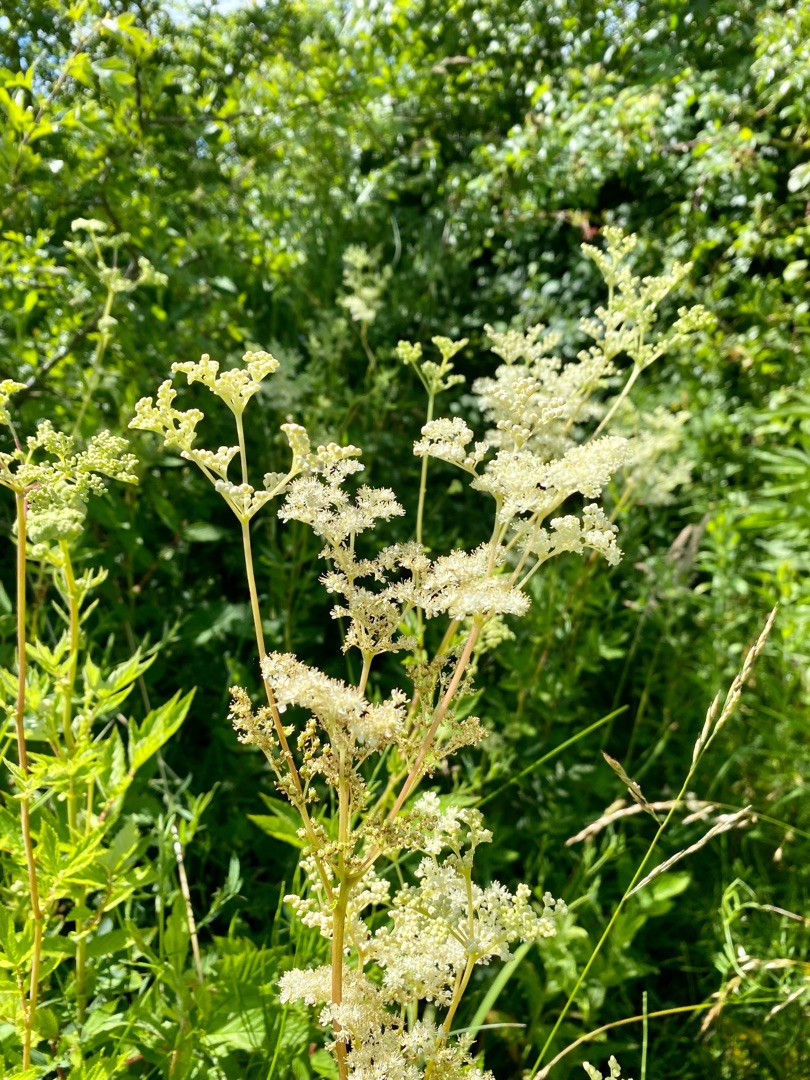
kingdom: Plantae
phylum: Tracheophyta
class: Magnoliopsida
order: Rosales
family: Rosaceae
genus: Filipendula
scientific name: Filipendula ulmaria
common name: Almindelig mjødurt
